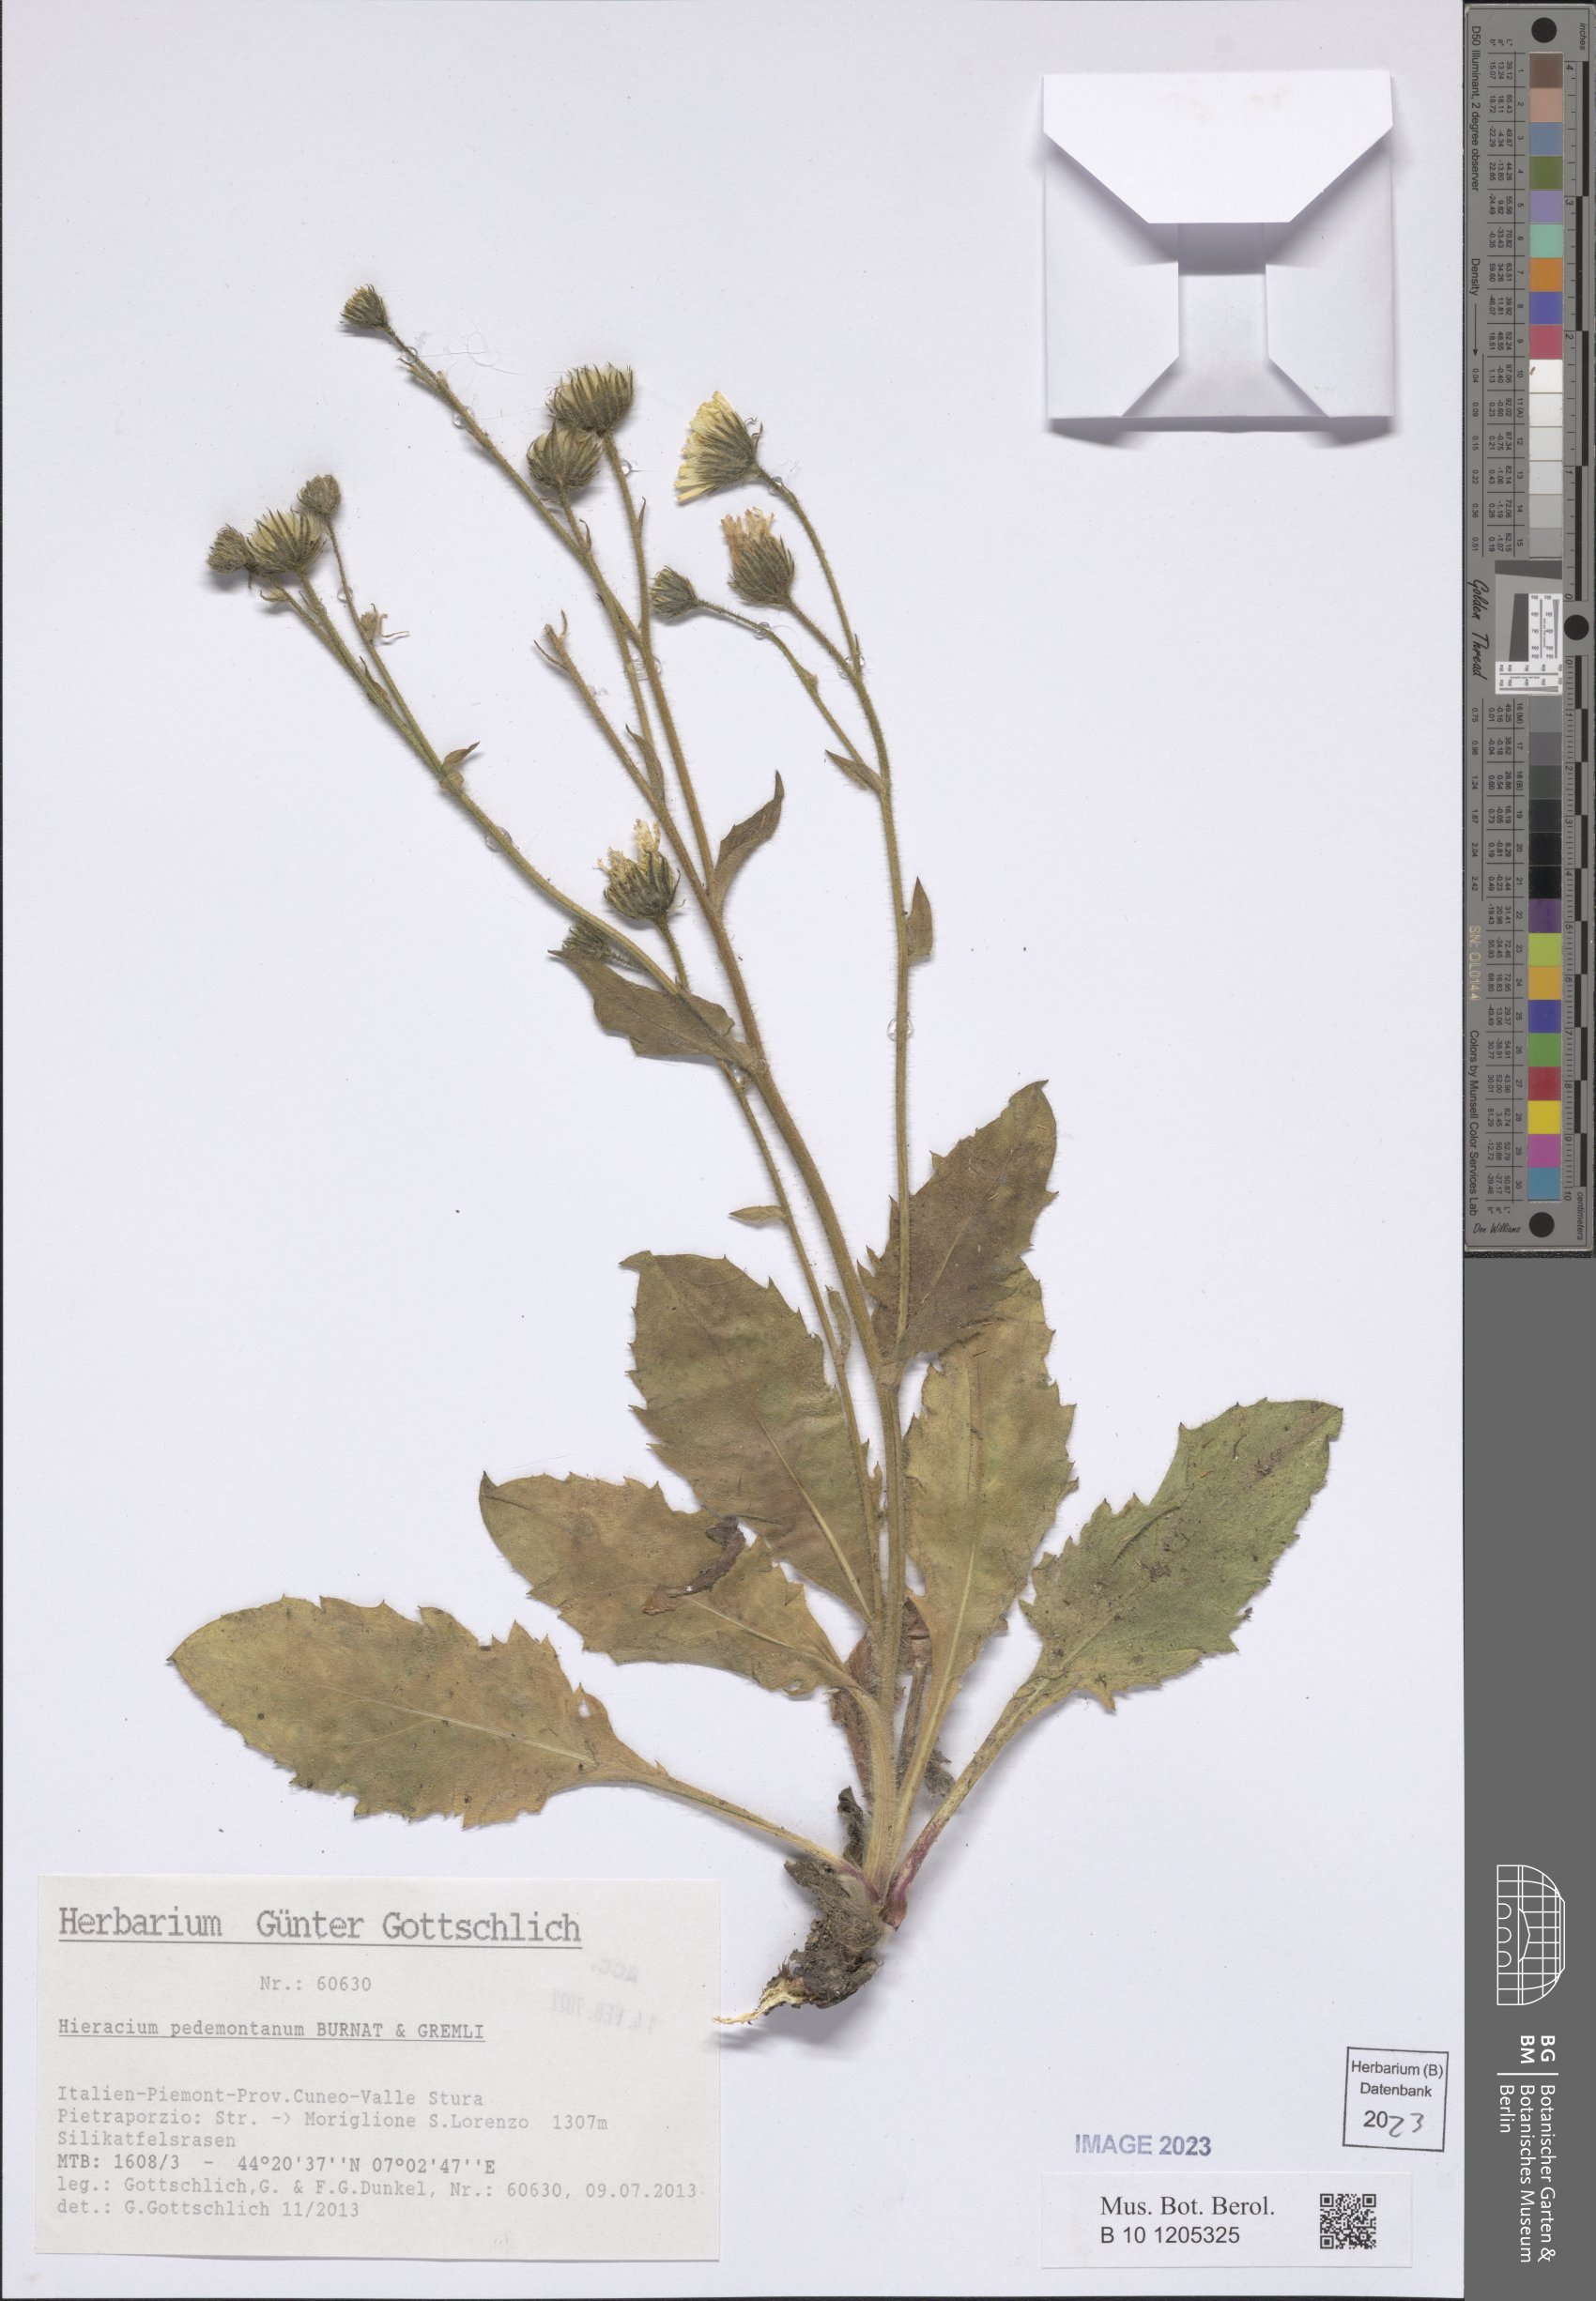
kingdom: Plantae
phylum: Tracheophyta
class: Magnoliopsida
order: Asterales
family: Asteraceae
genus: Hieracium
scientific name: Hieracium pedemontanum
